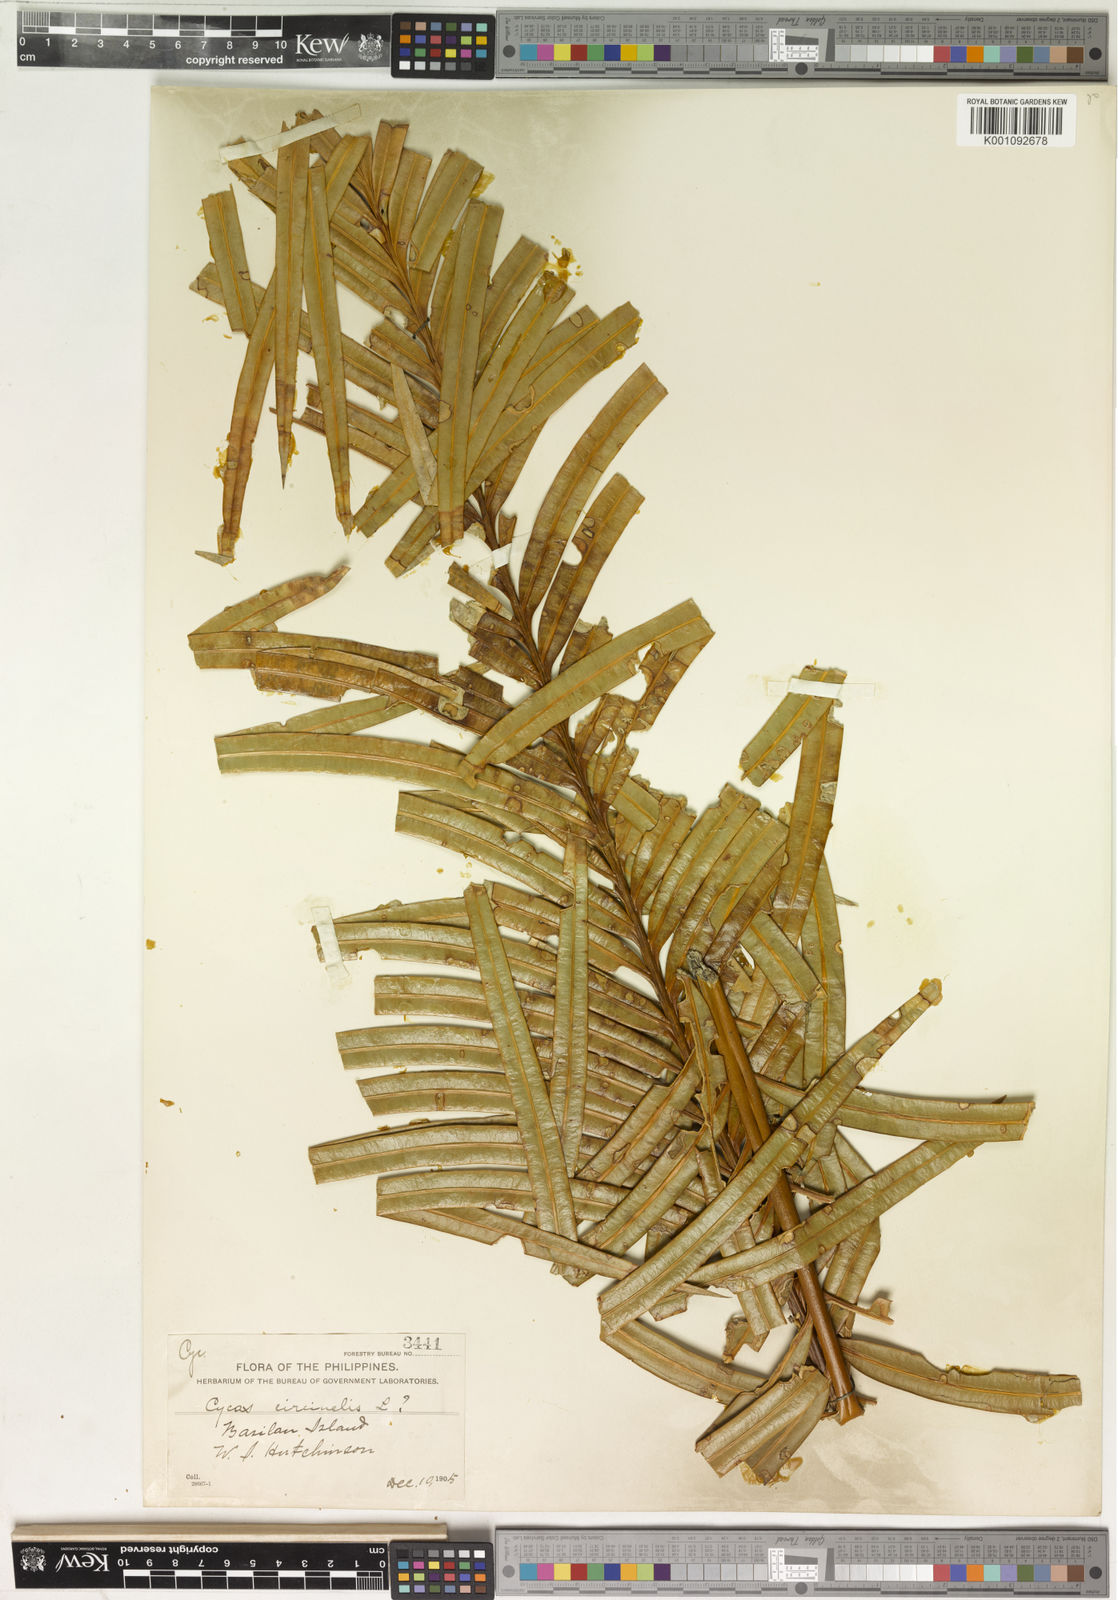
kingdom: Plantae
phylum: Tracheophyta
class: Cycadopsida
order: Cycadales
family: Cycadaceae
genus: Cycas
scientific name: Cycas circinalis
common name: Queen sago
